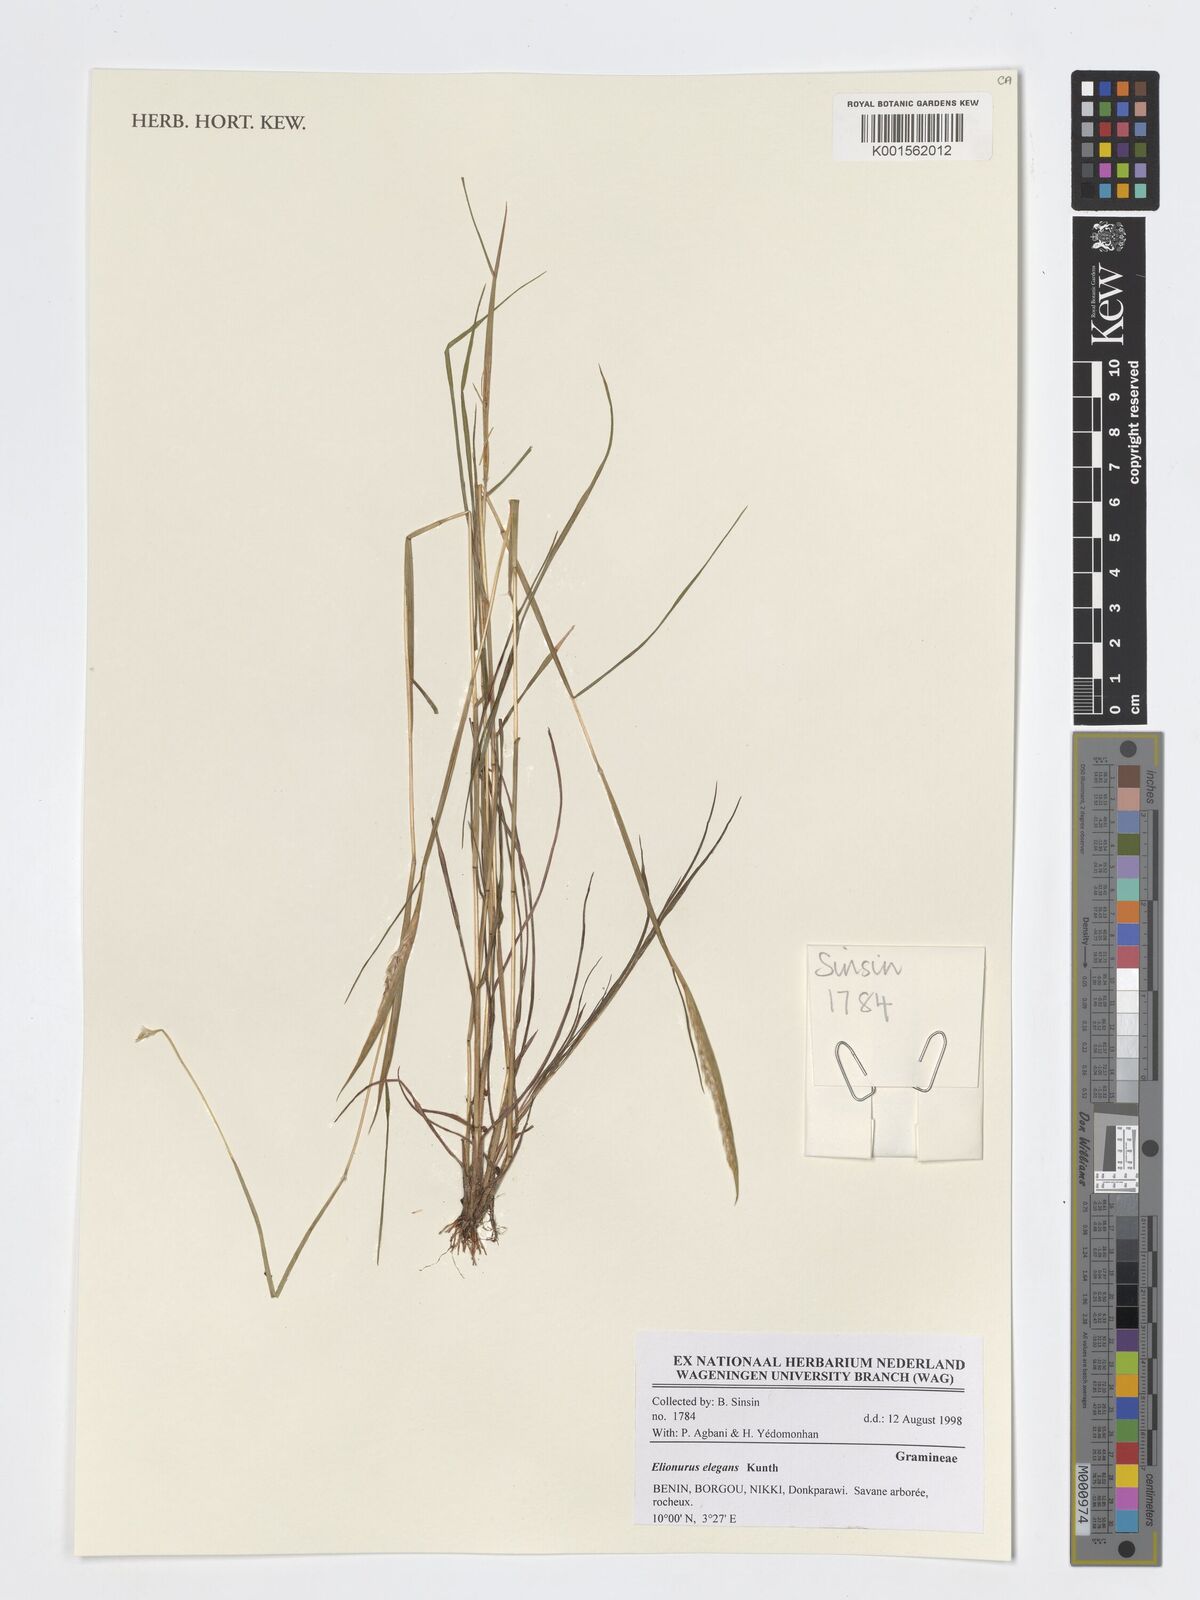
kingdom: Plantae
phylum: Tracheophyta
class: Liliopsida
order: Poales
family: Poaceae
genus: Elionurus
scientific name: Elionurus elegans
